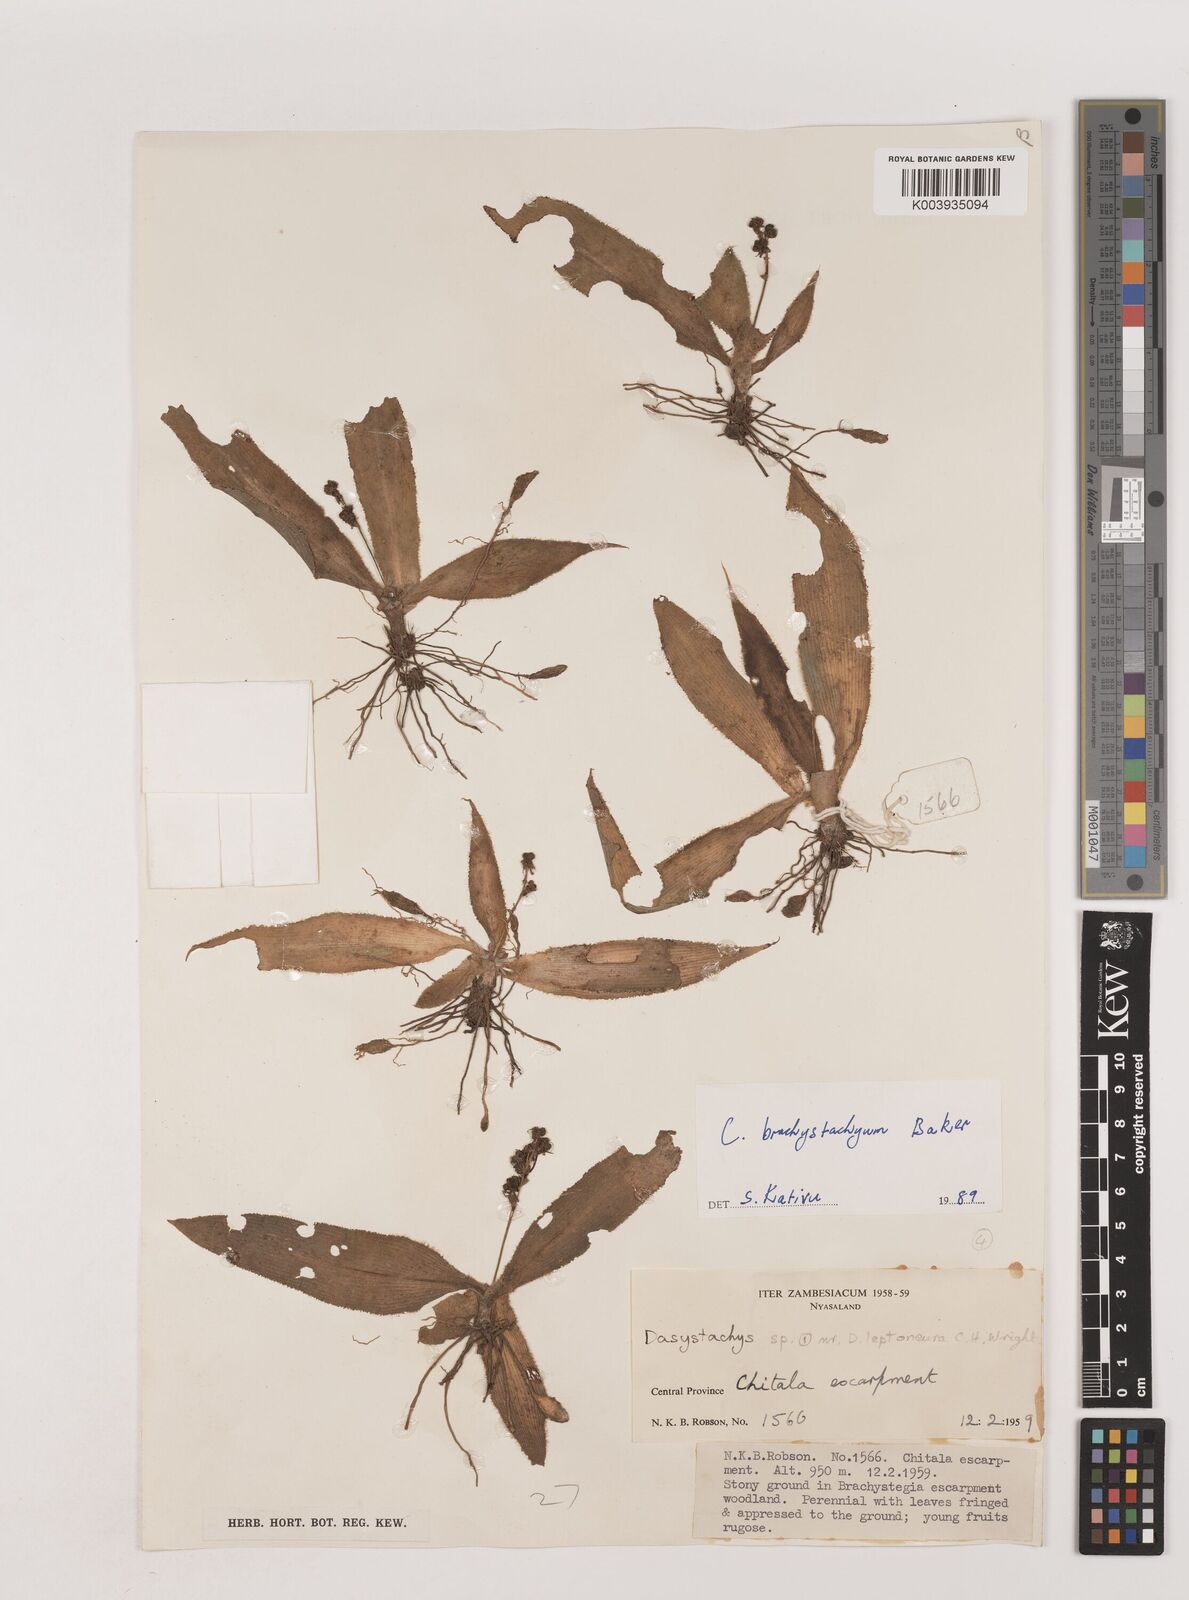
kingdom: Plantae
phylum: Tracheophyta
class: Liliopsida
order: Asparagales
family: Asparagaceae
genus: Chlorophytum
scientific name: Chlorophytum brachystachyum
